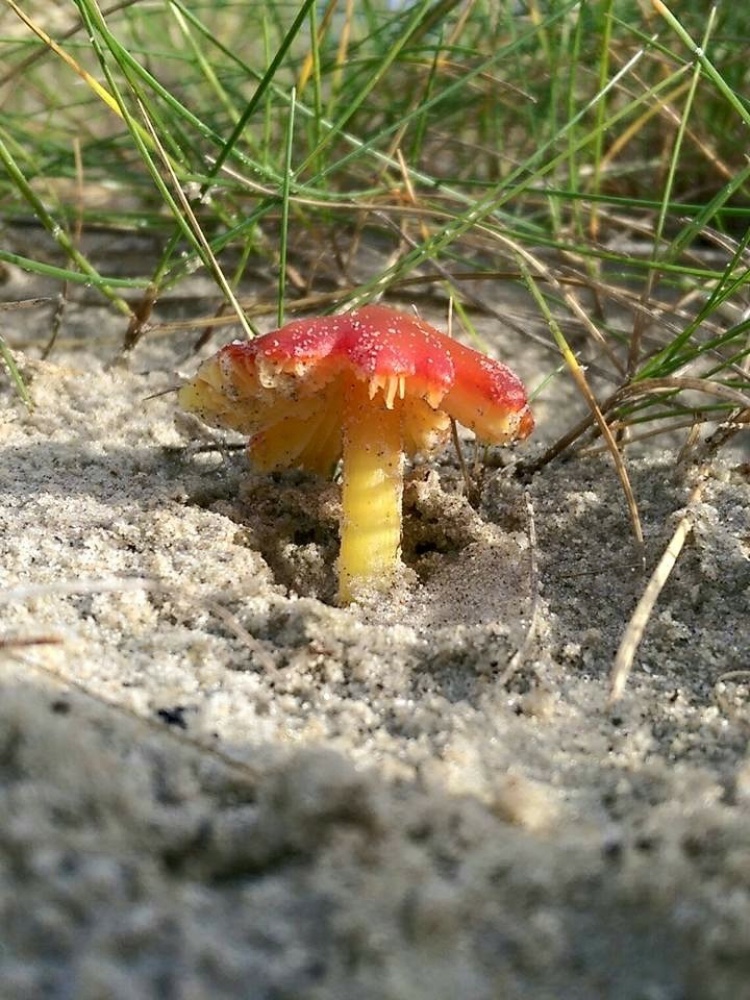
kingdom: Fungi
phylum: Basidiomycota
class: Agaricomycetes
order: Agaricales
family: Hygrophoraceae
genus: Hygrocybe
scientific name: Hygrocybe conicoides
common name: klit-vokshat
